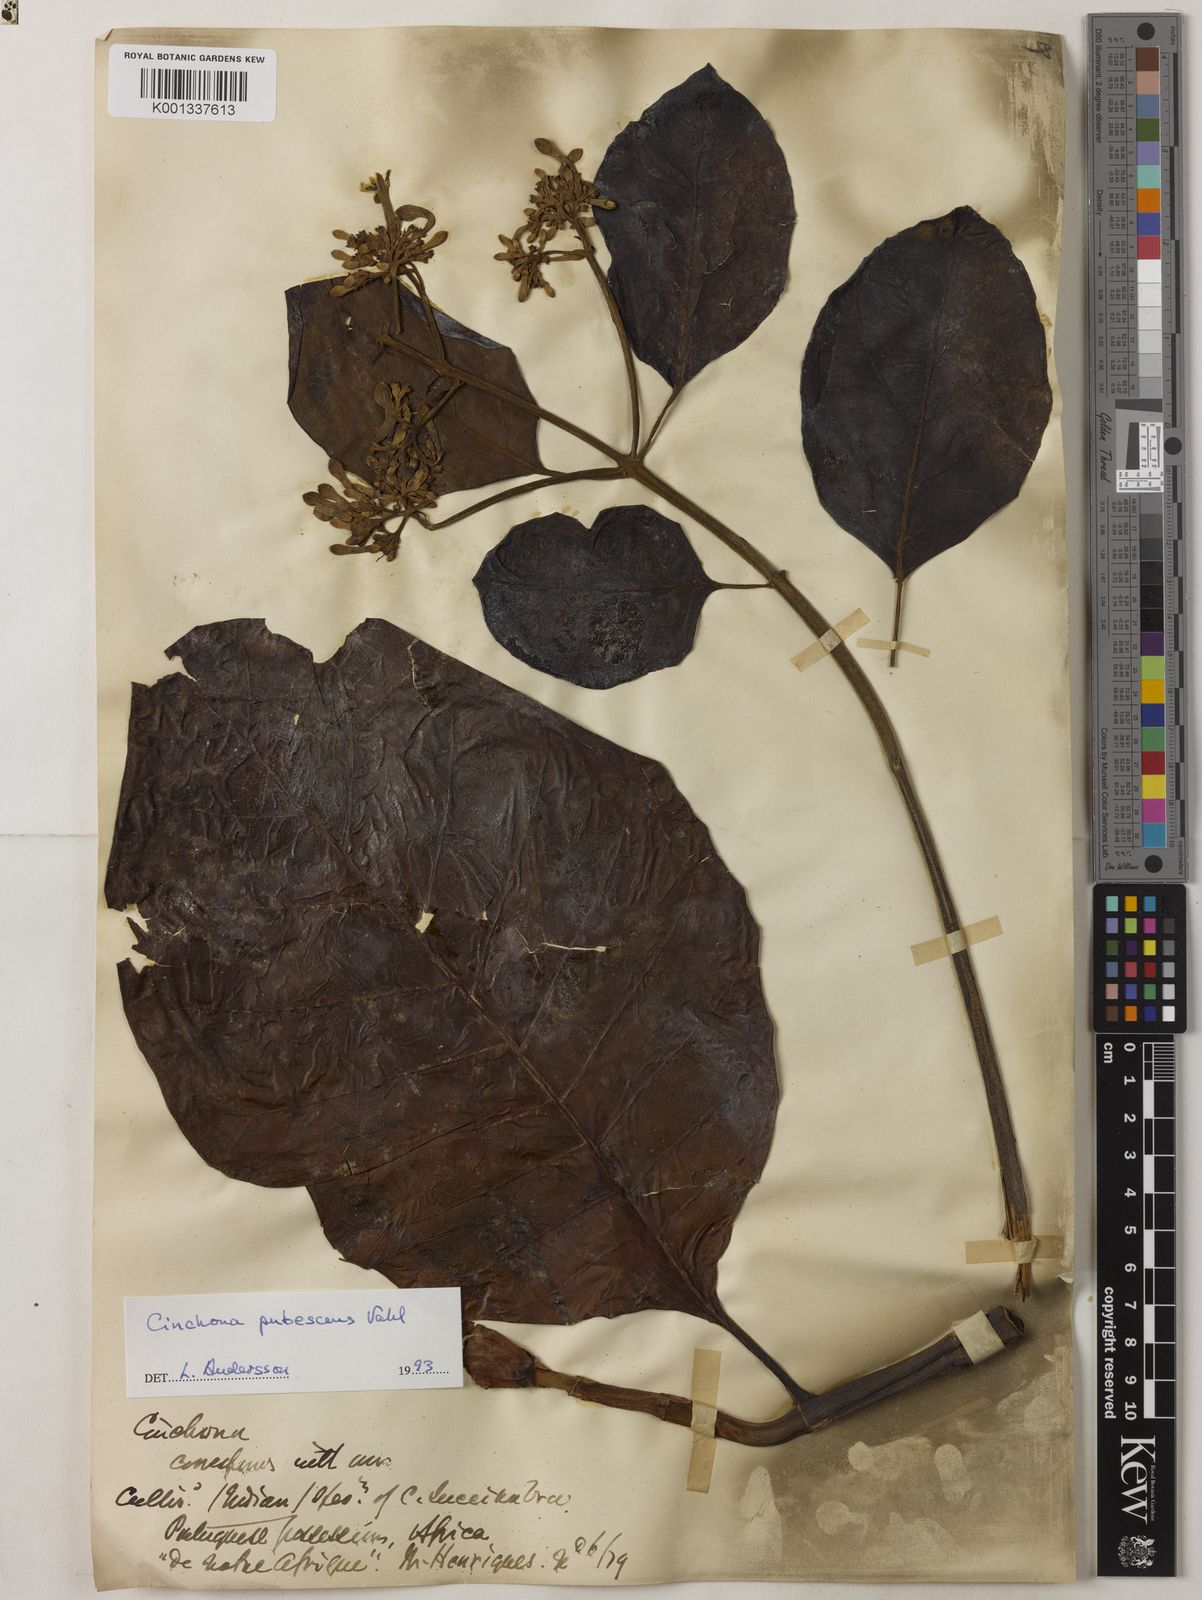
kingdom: Plantae
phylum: Tracheophyta
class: Magnoliopsida
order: Gentianales
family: Rubiaceae
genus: Cinchona
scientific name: Cinchona pubescens
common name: Quinine
